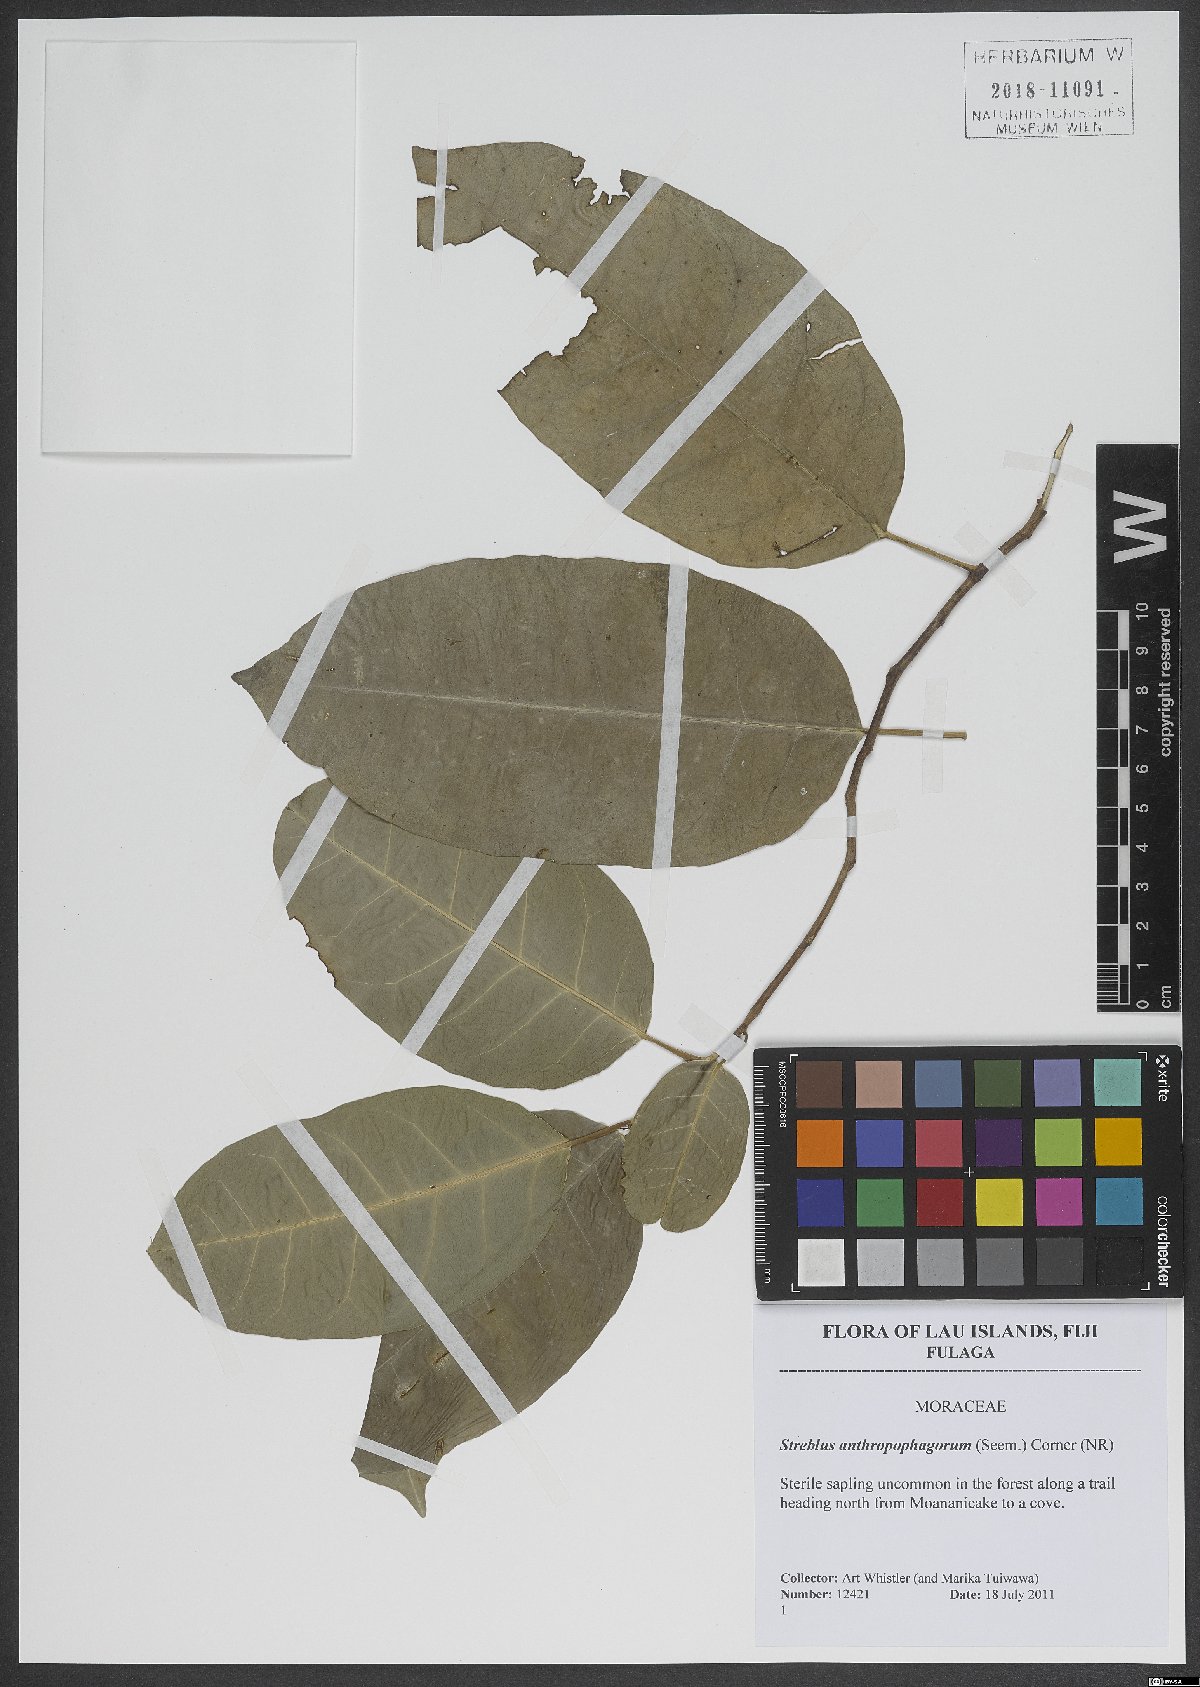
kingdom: Plantae
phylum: Tracheophyta
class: Magnoliopsida
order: Rosales
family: Moraceae
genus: Paratrophis
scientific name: Paratrophis anthropophagorum
